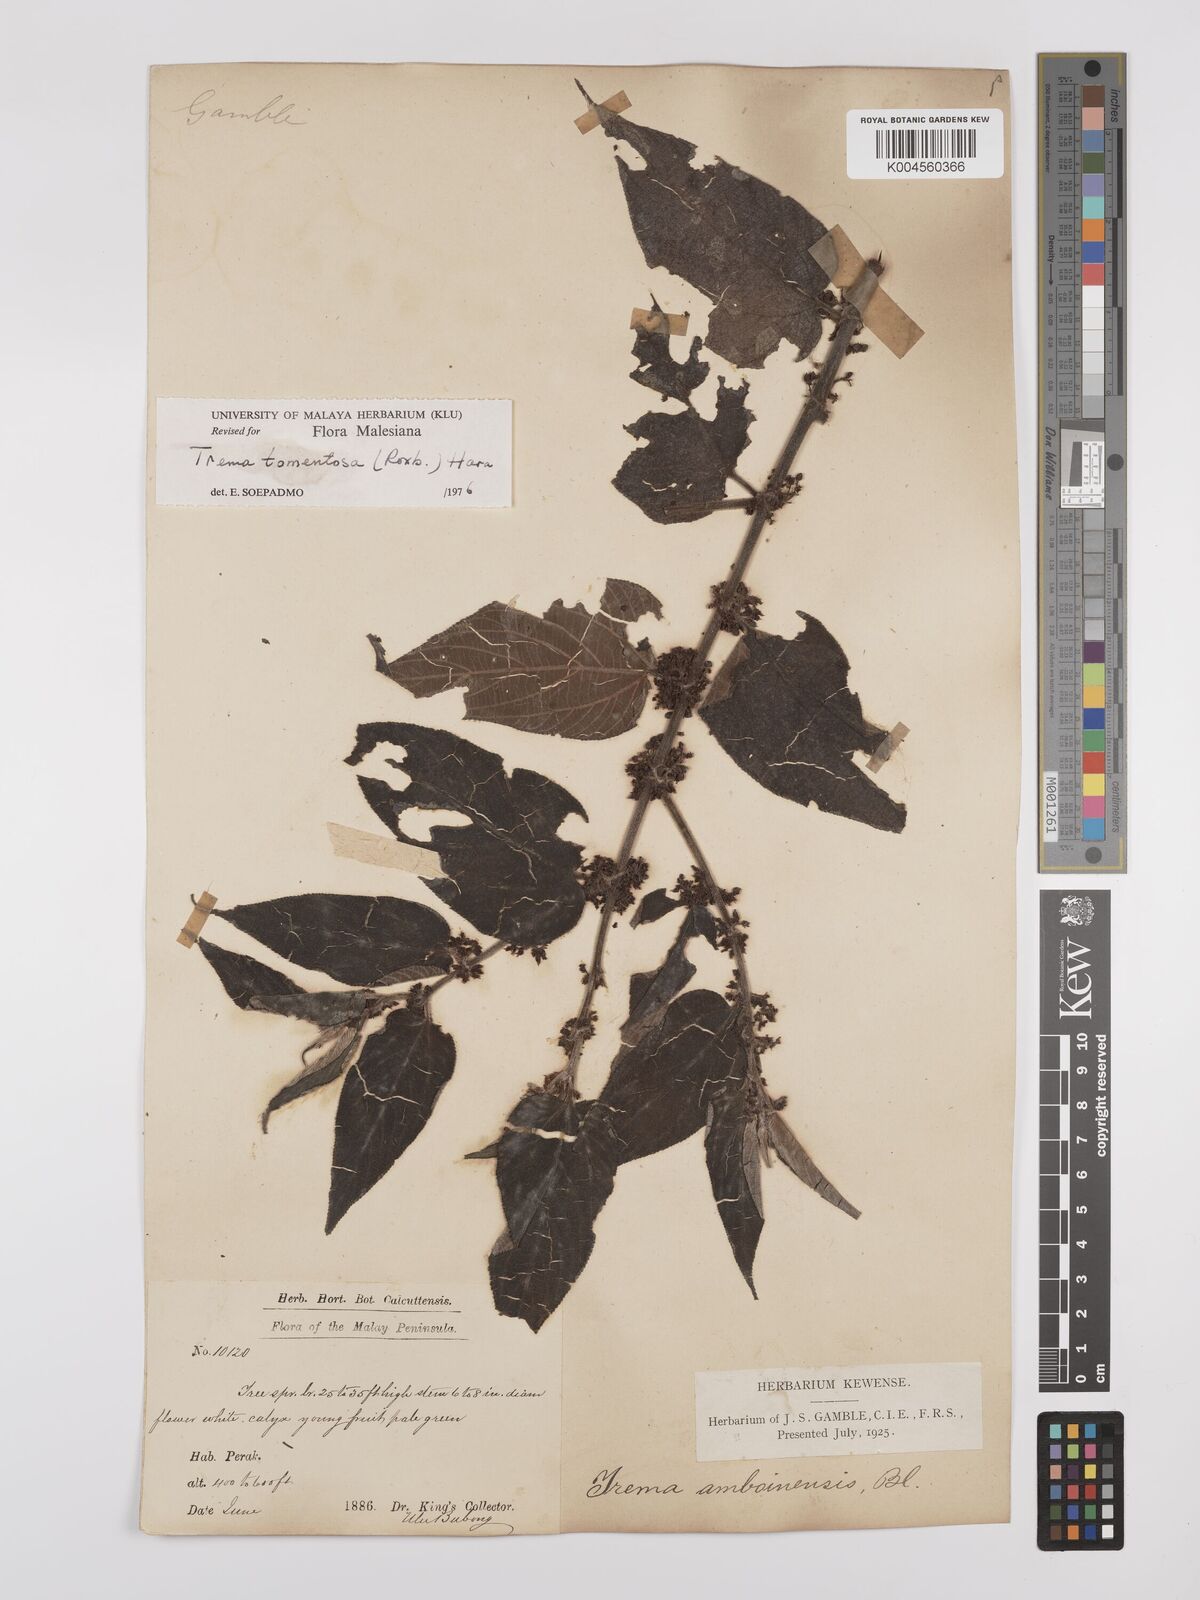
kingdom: Plantae
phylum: Tracheophyta
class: Magnoliopsida
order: Rosales
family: Cannabaceae
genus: Trema
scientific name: Trema tomentosum
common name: Peach-leaf-poisonbush
